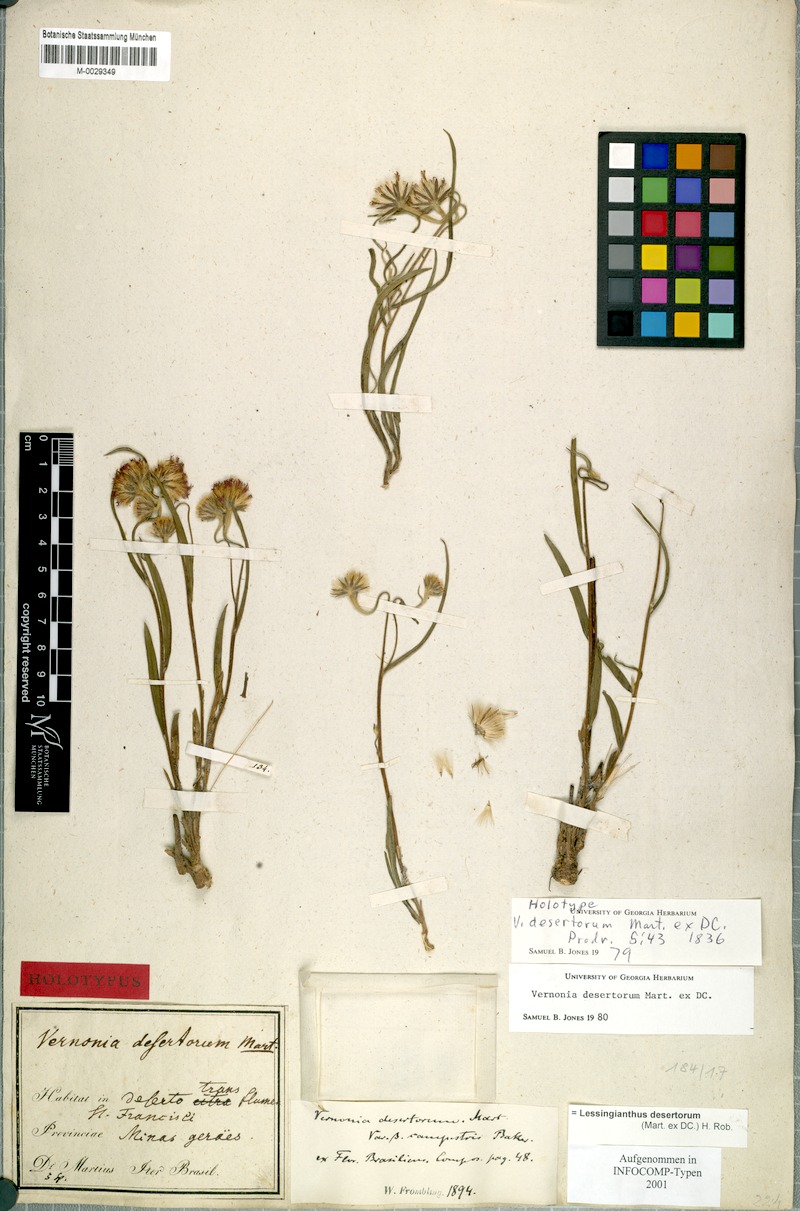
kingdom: Plantae
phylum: Tracheophyta
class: Magnoliopsida
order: Asterales
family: Asteraceae
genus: Chrysolaena
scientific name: Chrysolaena desertorum
